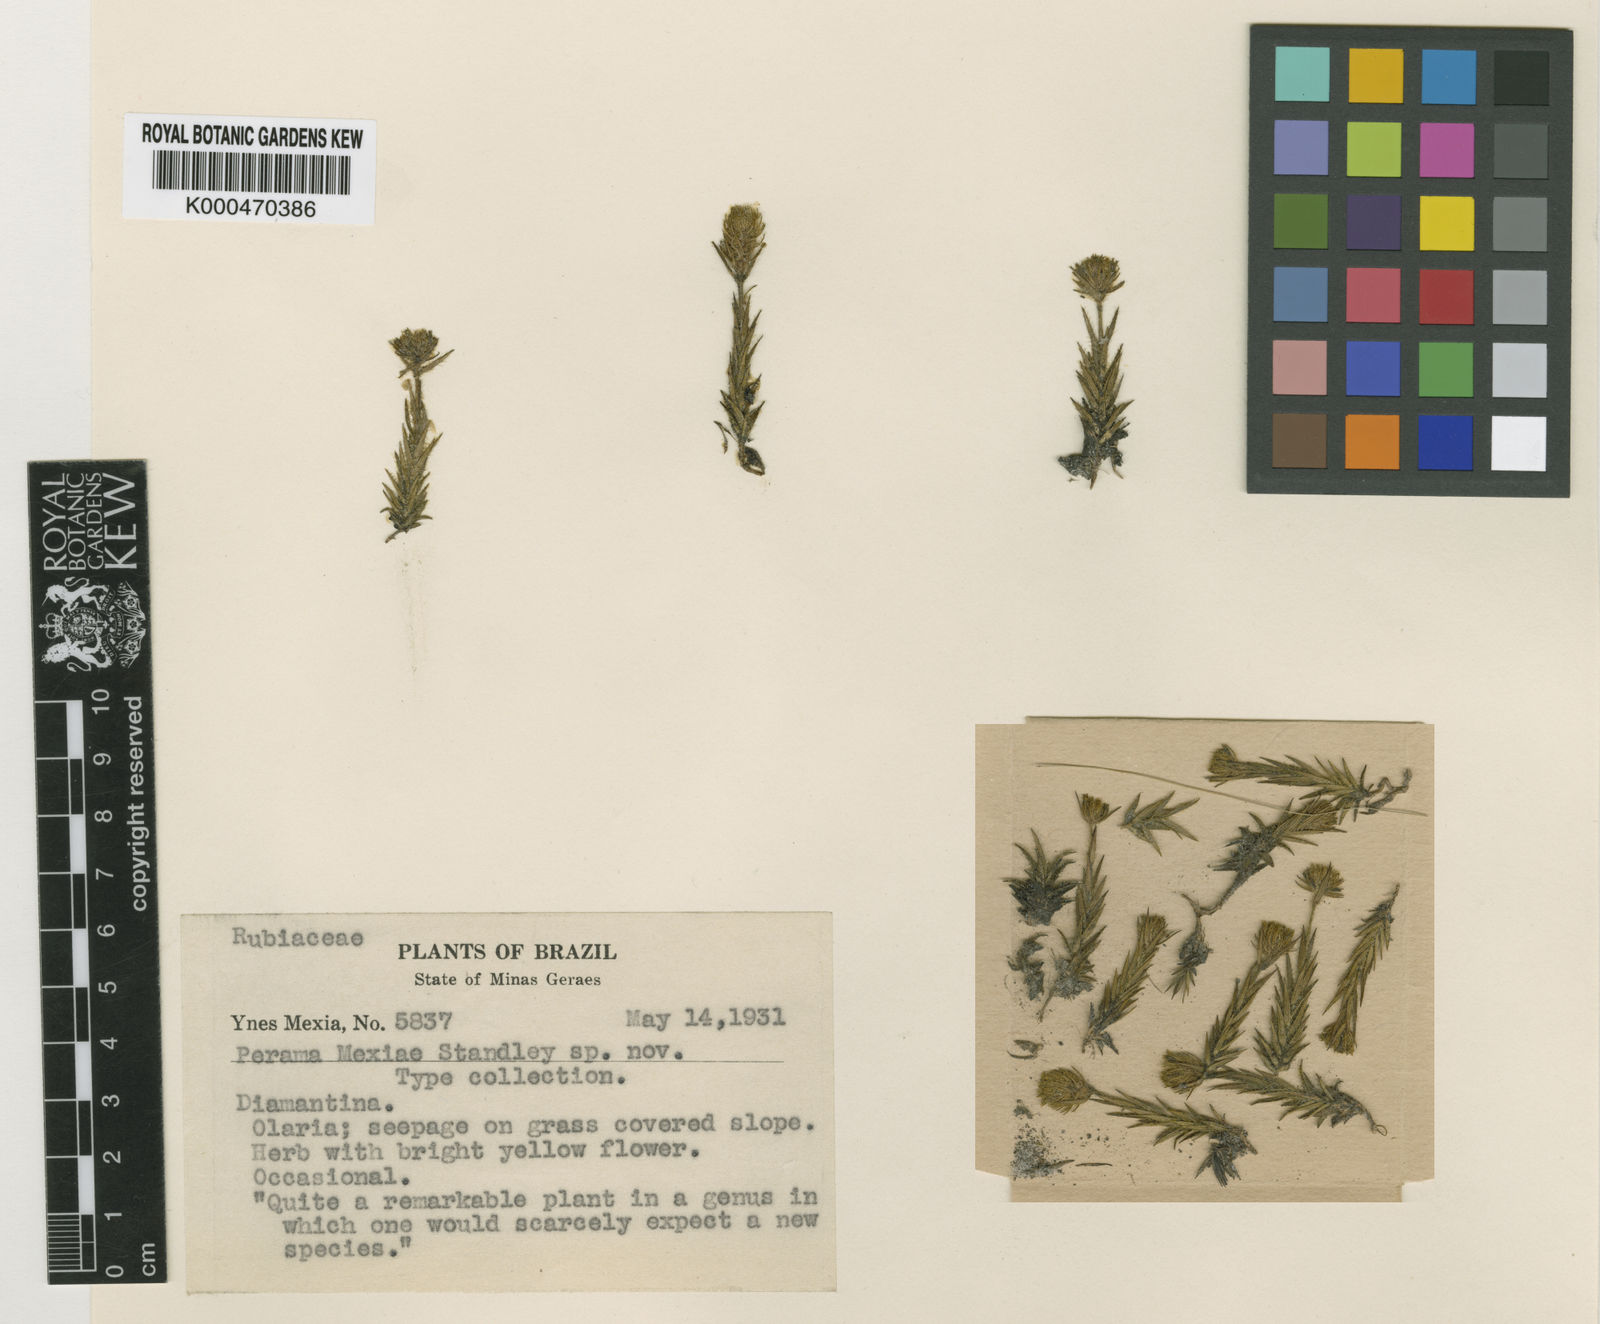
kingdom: Plantae
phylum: Tracheophyta
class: Magnoliopsida
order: Gentianales
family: Rubiaceae
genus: Perama
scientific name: Perama mexiae
